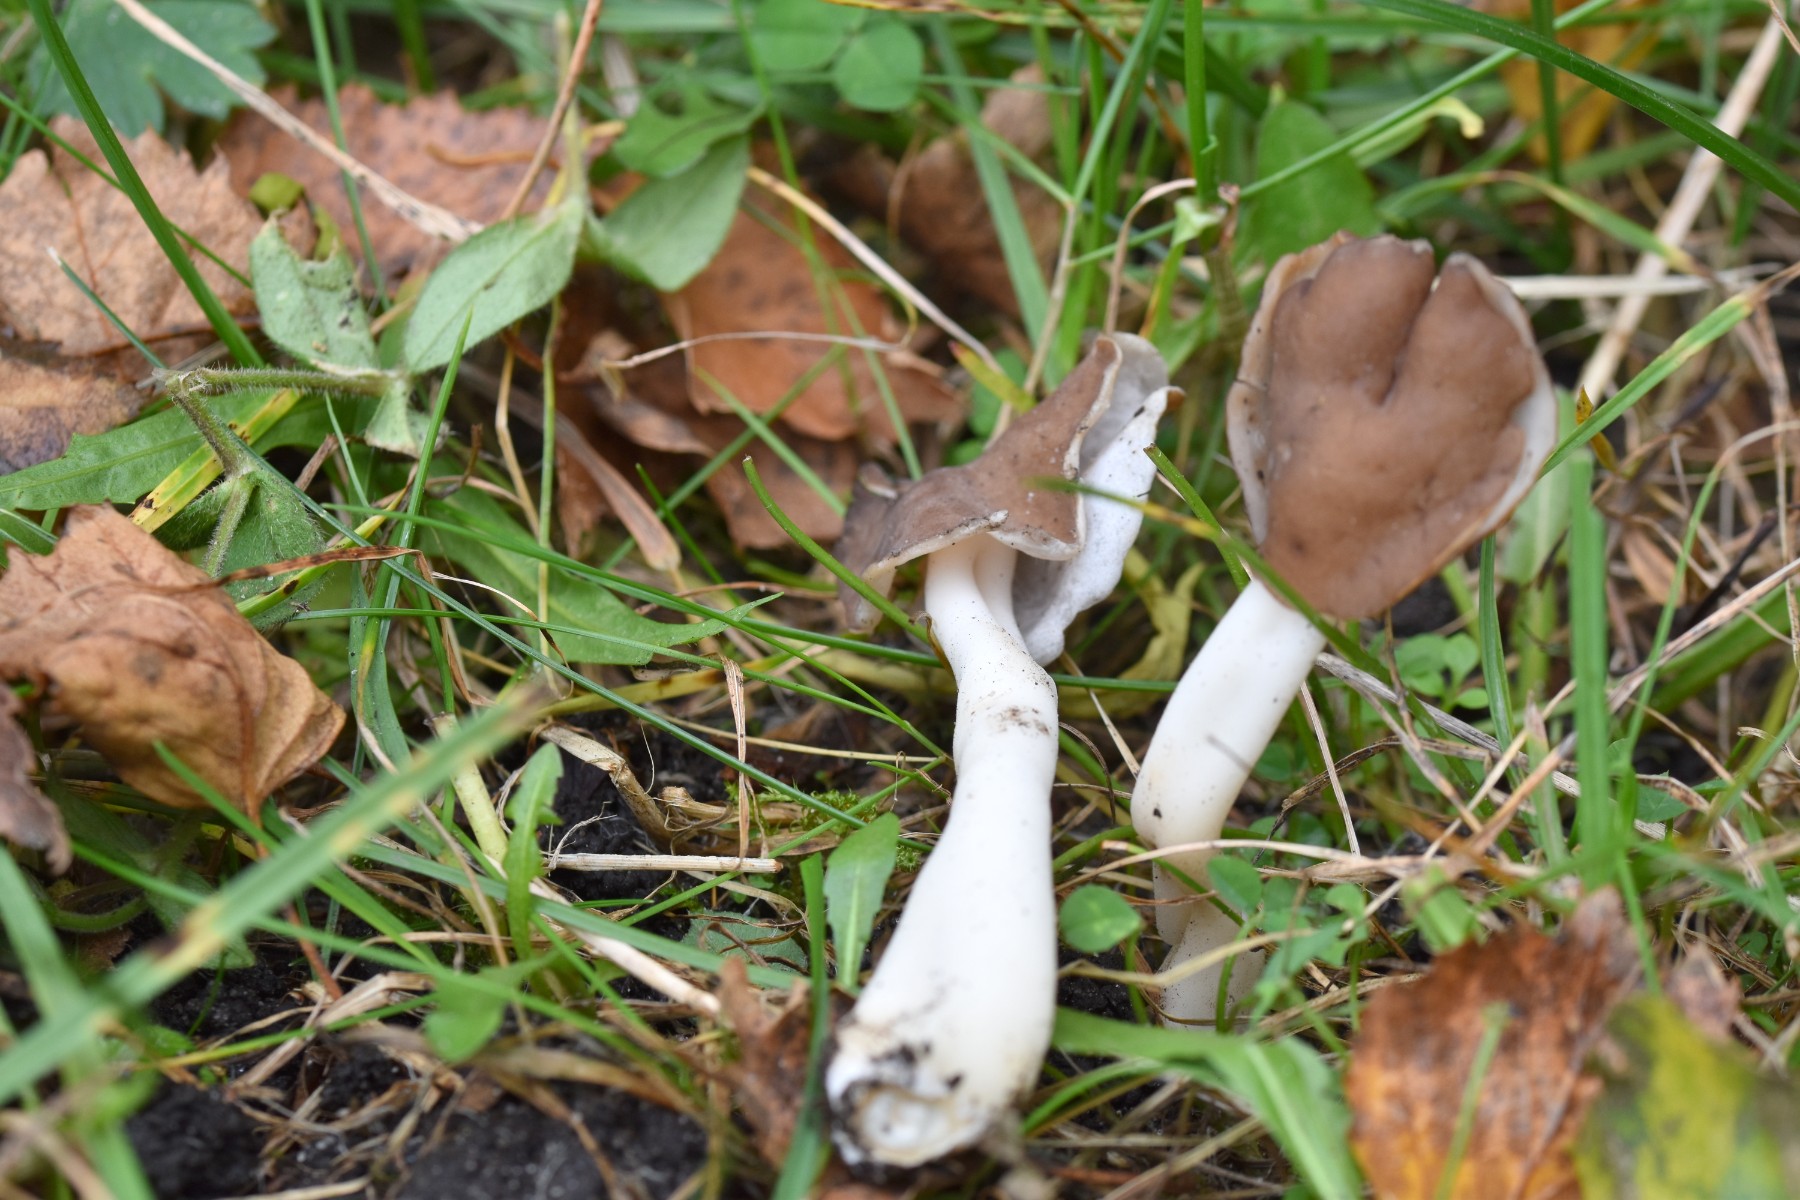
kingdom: Fungi
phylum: Ascomycota
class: Pezizomycetes
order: Pezizales
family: Helvellaceae
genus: Helvella
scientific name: Helvella elastica
